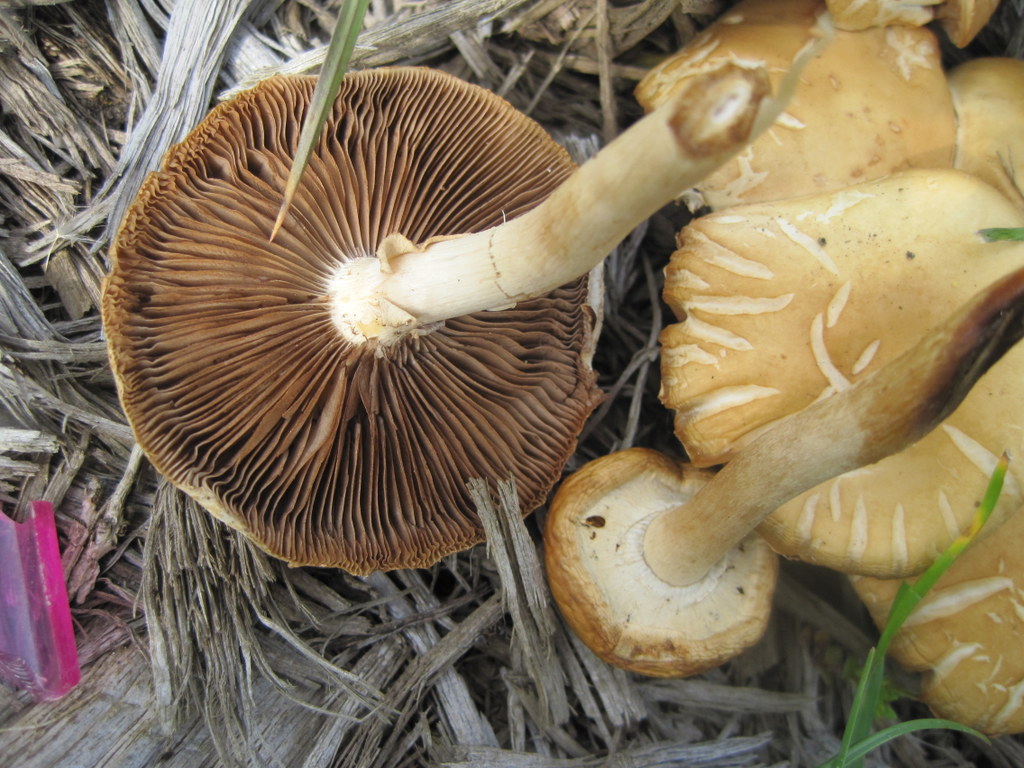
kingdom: Fungi
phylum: Basidiomycota
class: Agaricomycetes
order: Agaricales
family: Strophariaceae
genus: Agrocybe
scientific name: Agrocybe praecox
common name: tidlig agerhat
